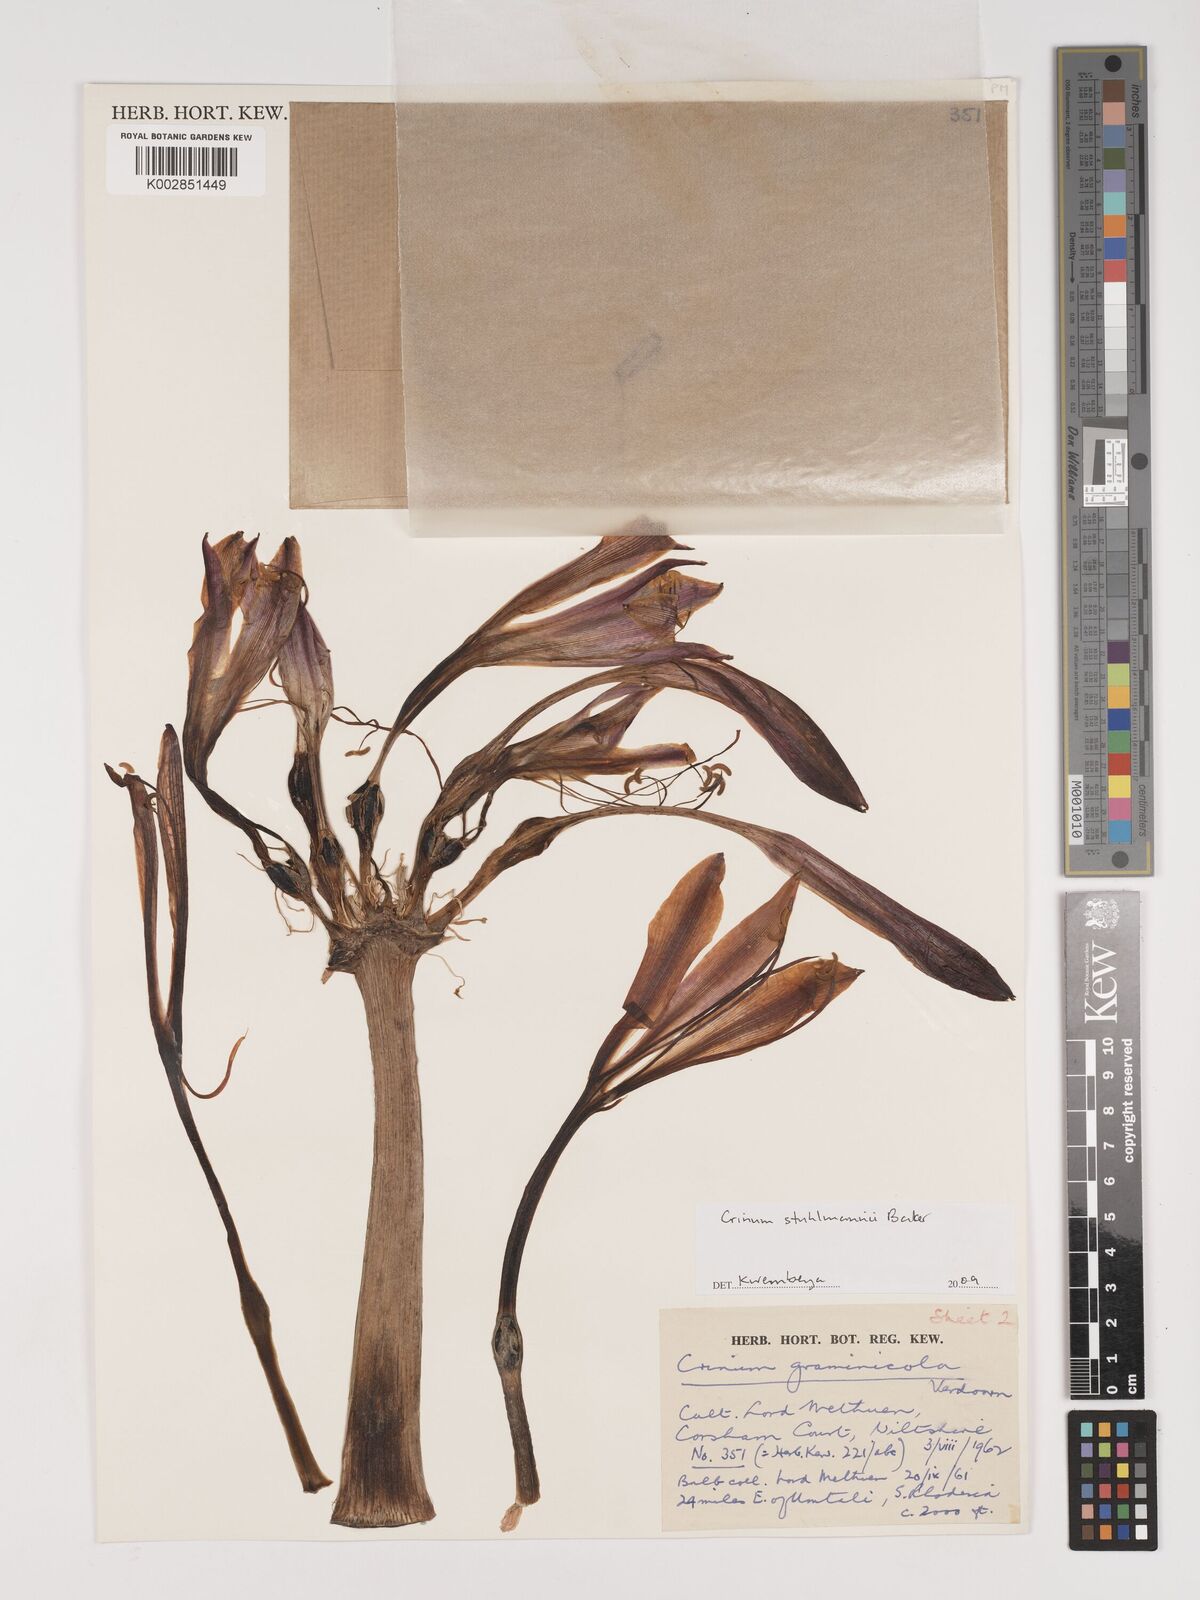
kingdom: Plantae
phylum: Tracheophyta
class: Liliopsida
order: Asparagales
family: Amaryllidaceae
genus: Crinum
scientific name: Crinum stuhlmannii
